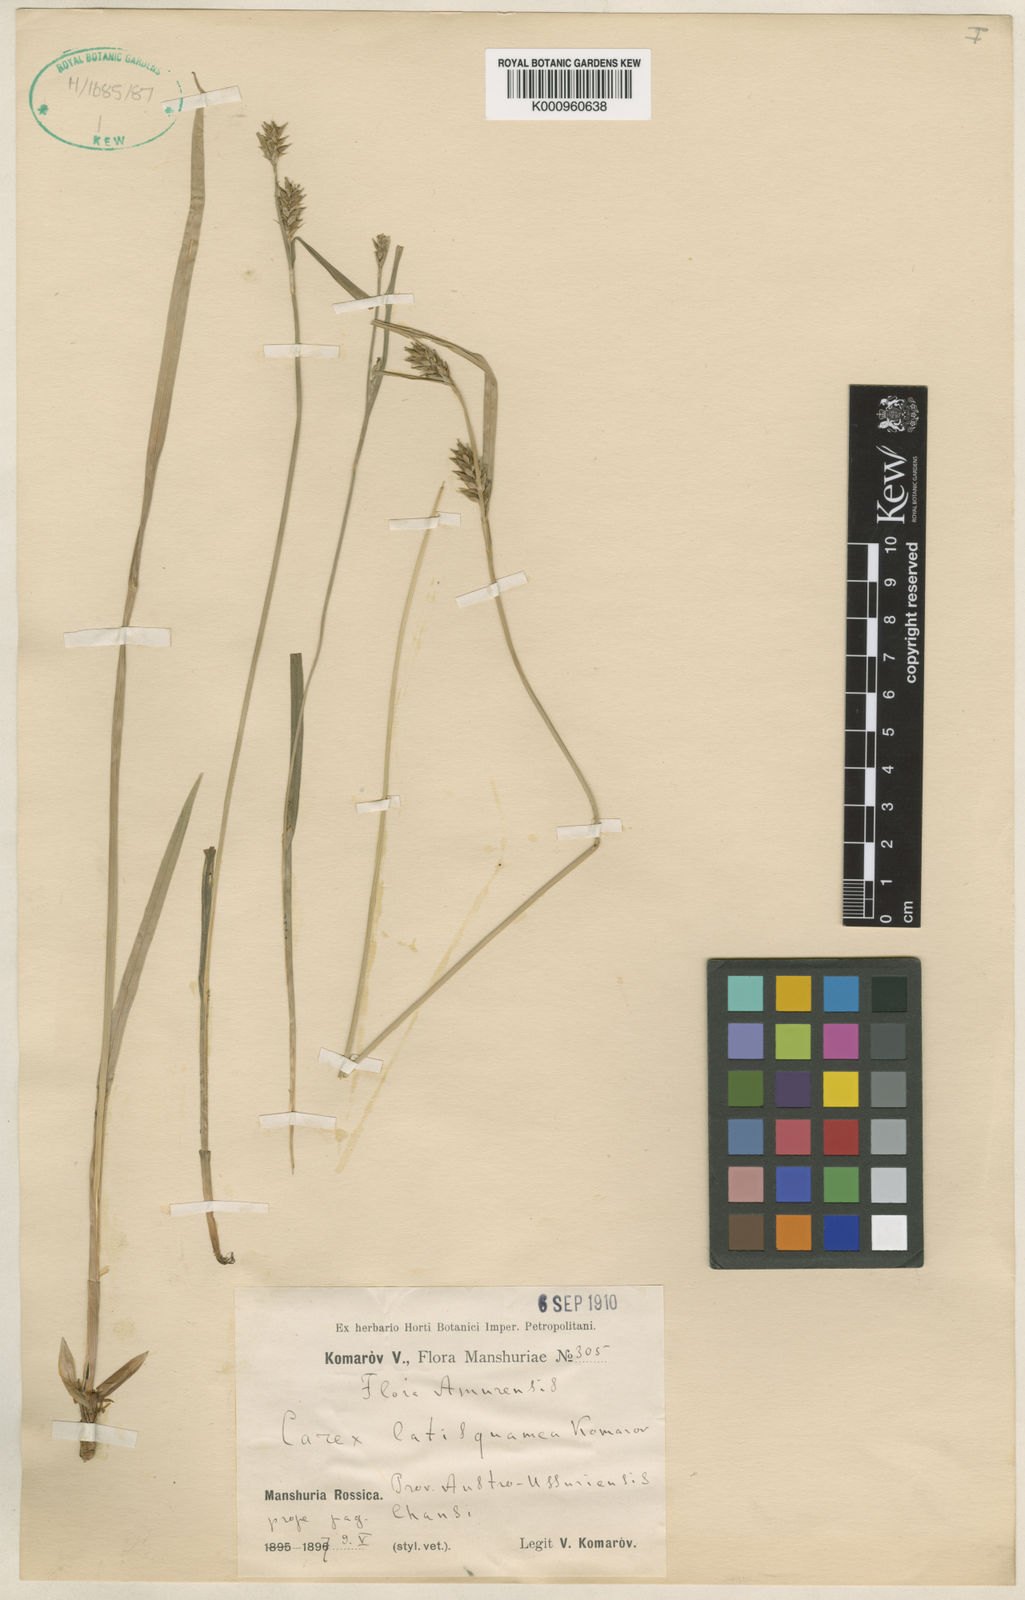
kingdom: Plantae
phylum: Tracheophyta
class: Liliopsida
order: Poales
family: Cyperaceae
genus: Carex
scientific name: Carex davalliana
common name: Davall's sedge
